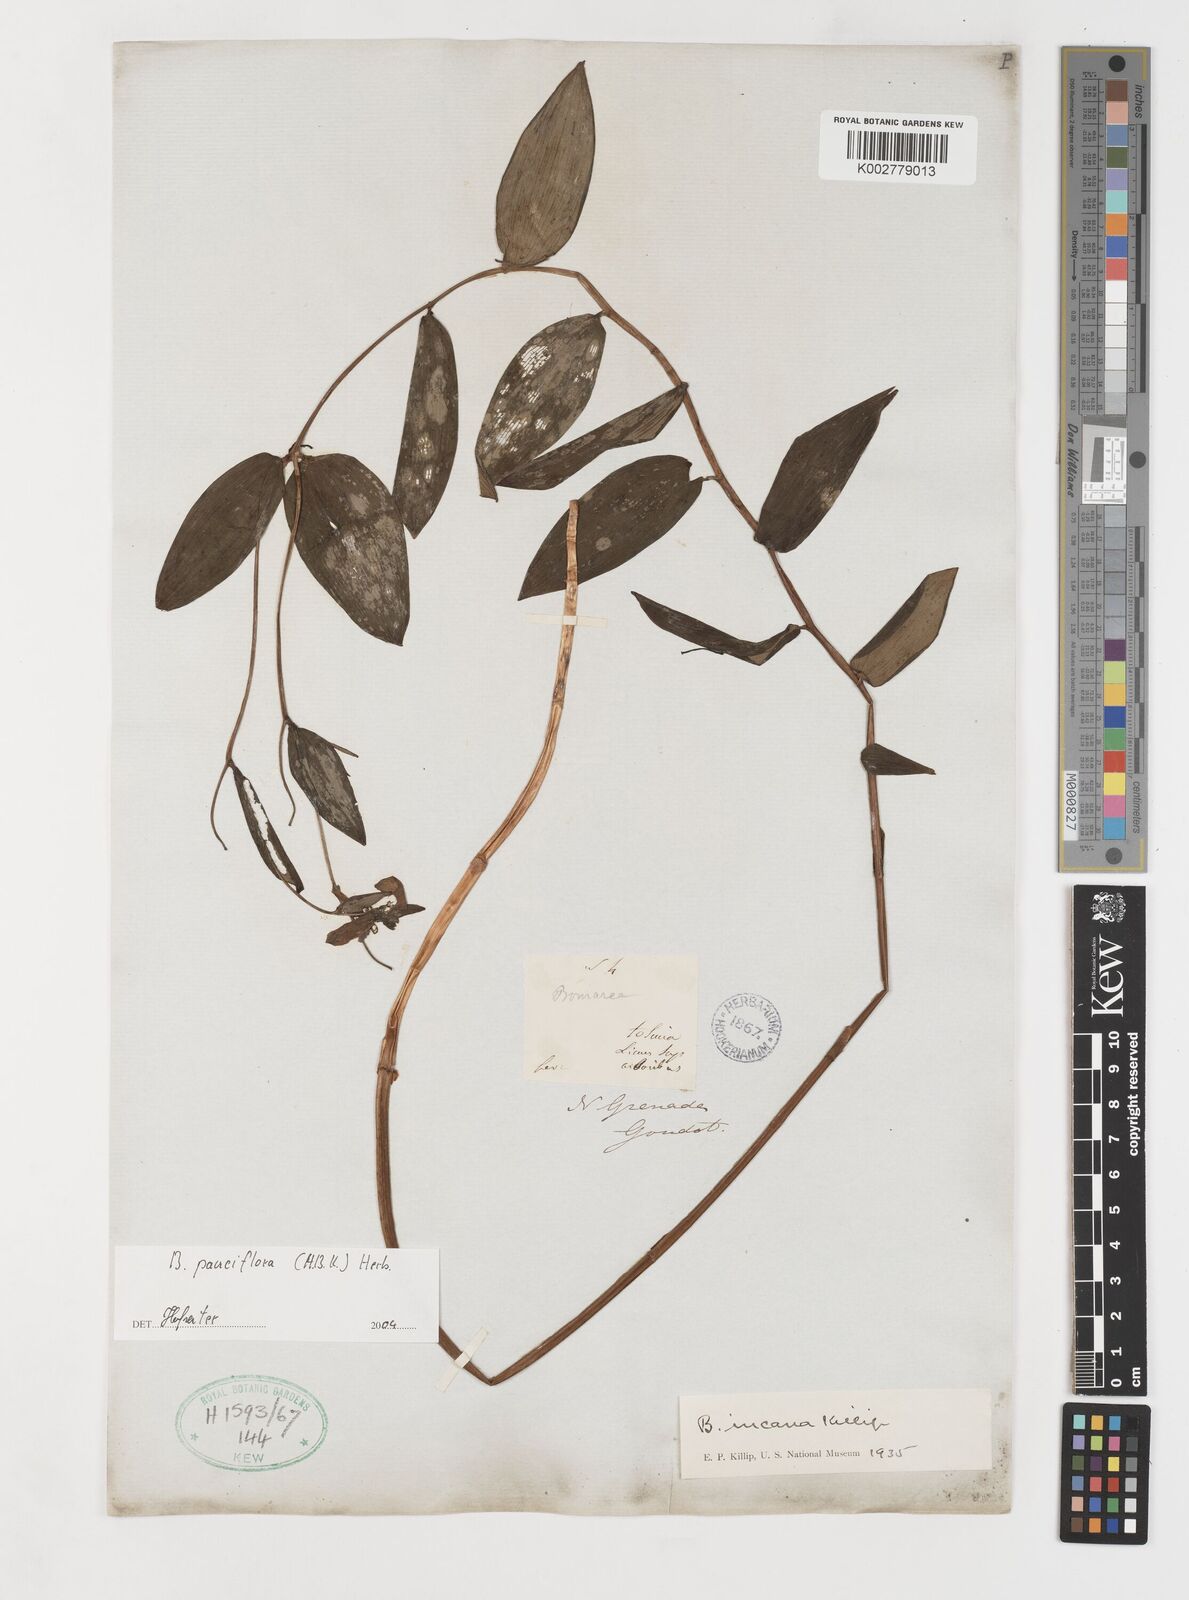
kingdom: Plantae
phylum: Tracheophyta
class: Liliopsida
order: Liliales
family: Alstroemeriaceae
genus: Bomarea
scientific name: Bomarea pauciflora
